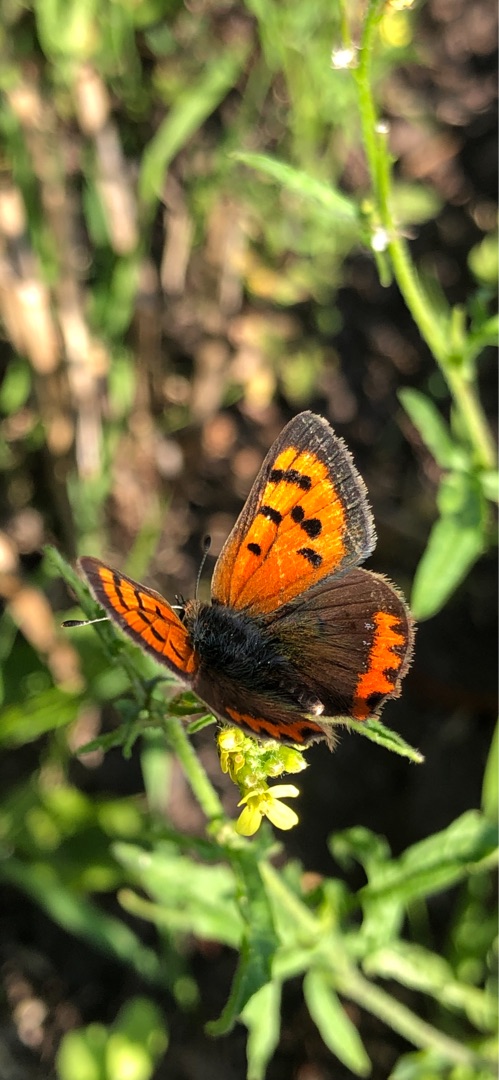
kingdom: Animalia
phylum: Arthropoda
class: Insecta
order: Lepidoptera
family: Lycaenidae
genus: Lycaena
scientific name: Lycaena phlaeas
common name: Lille ildfugl
